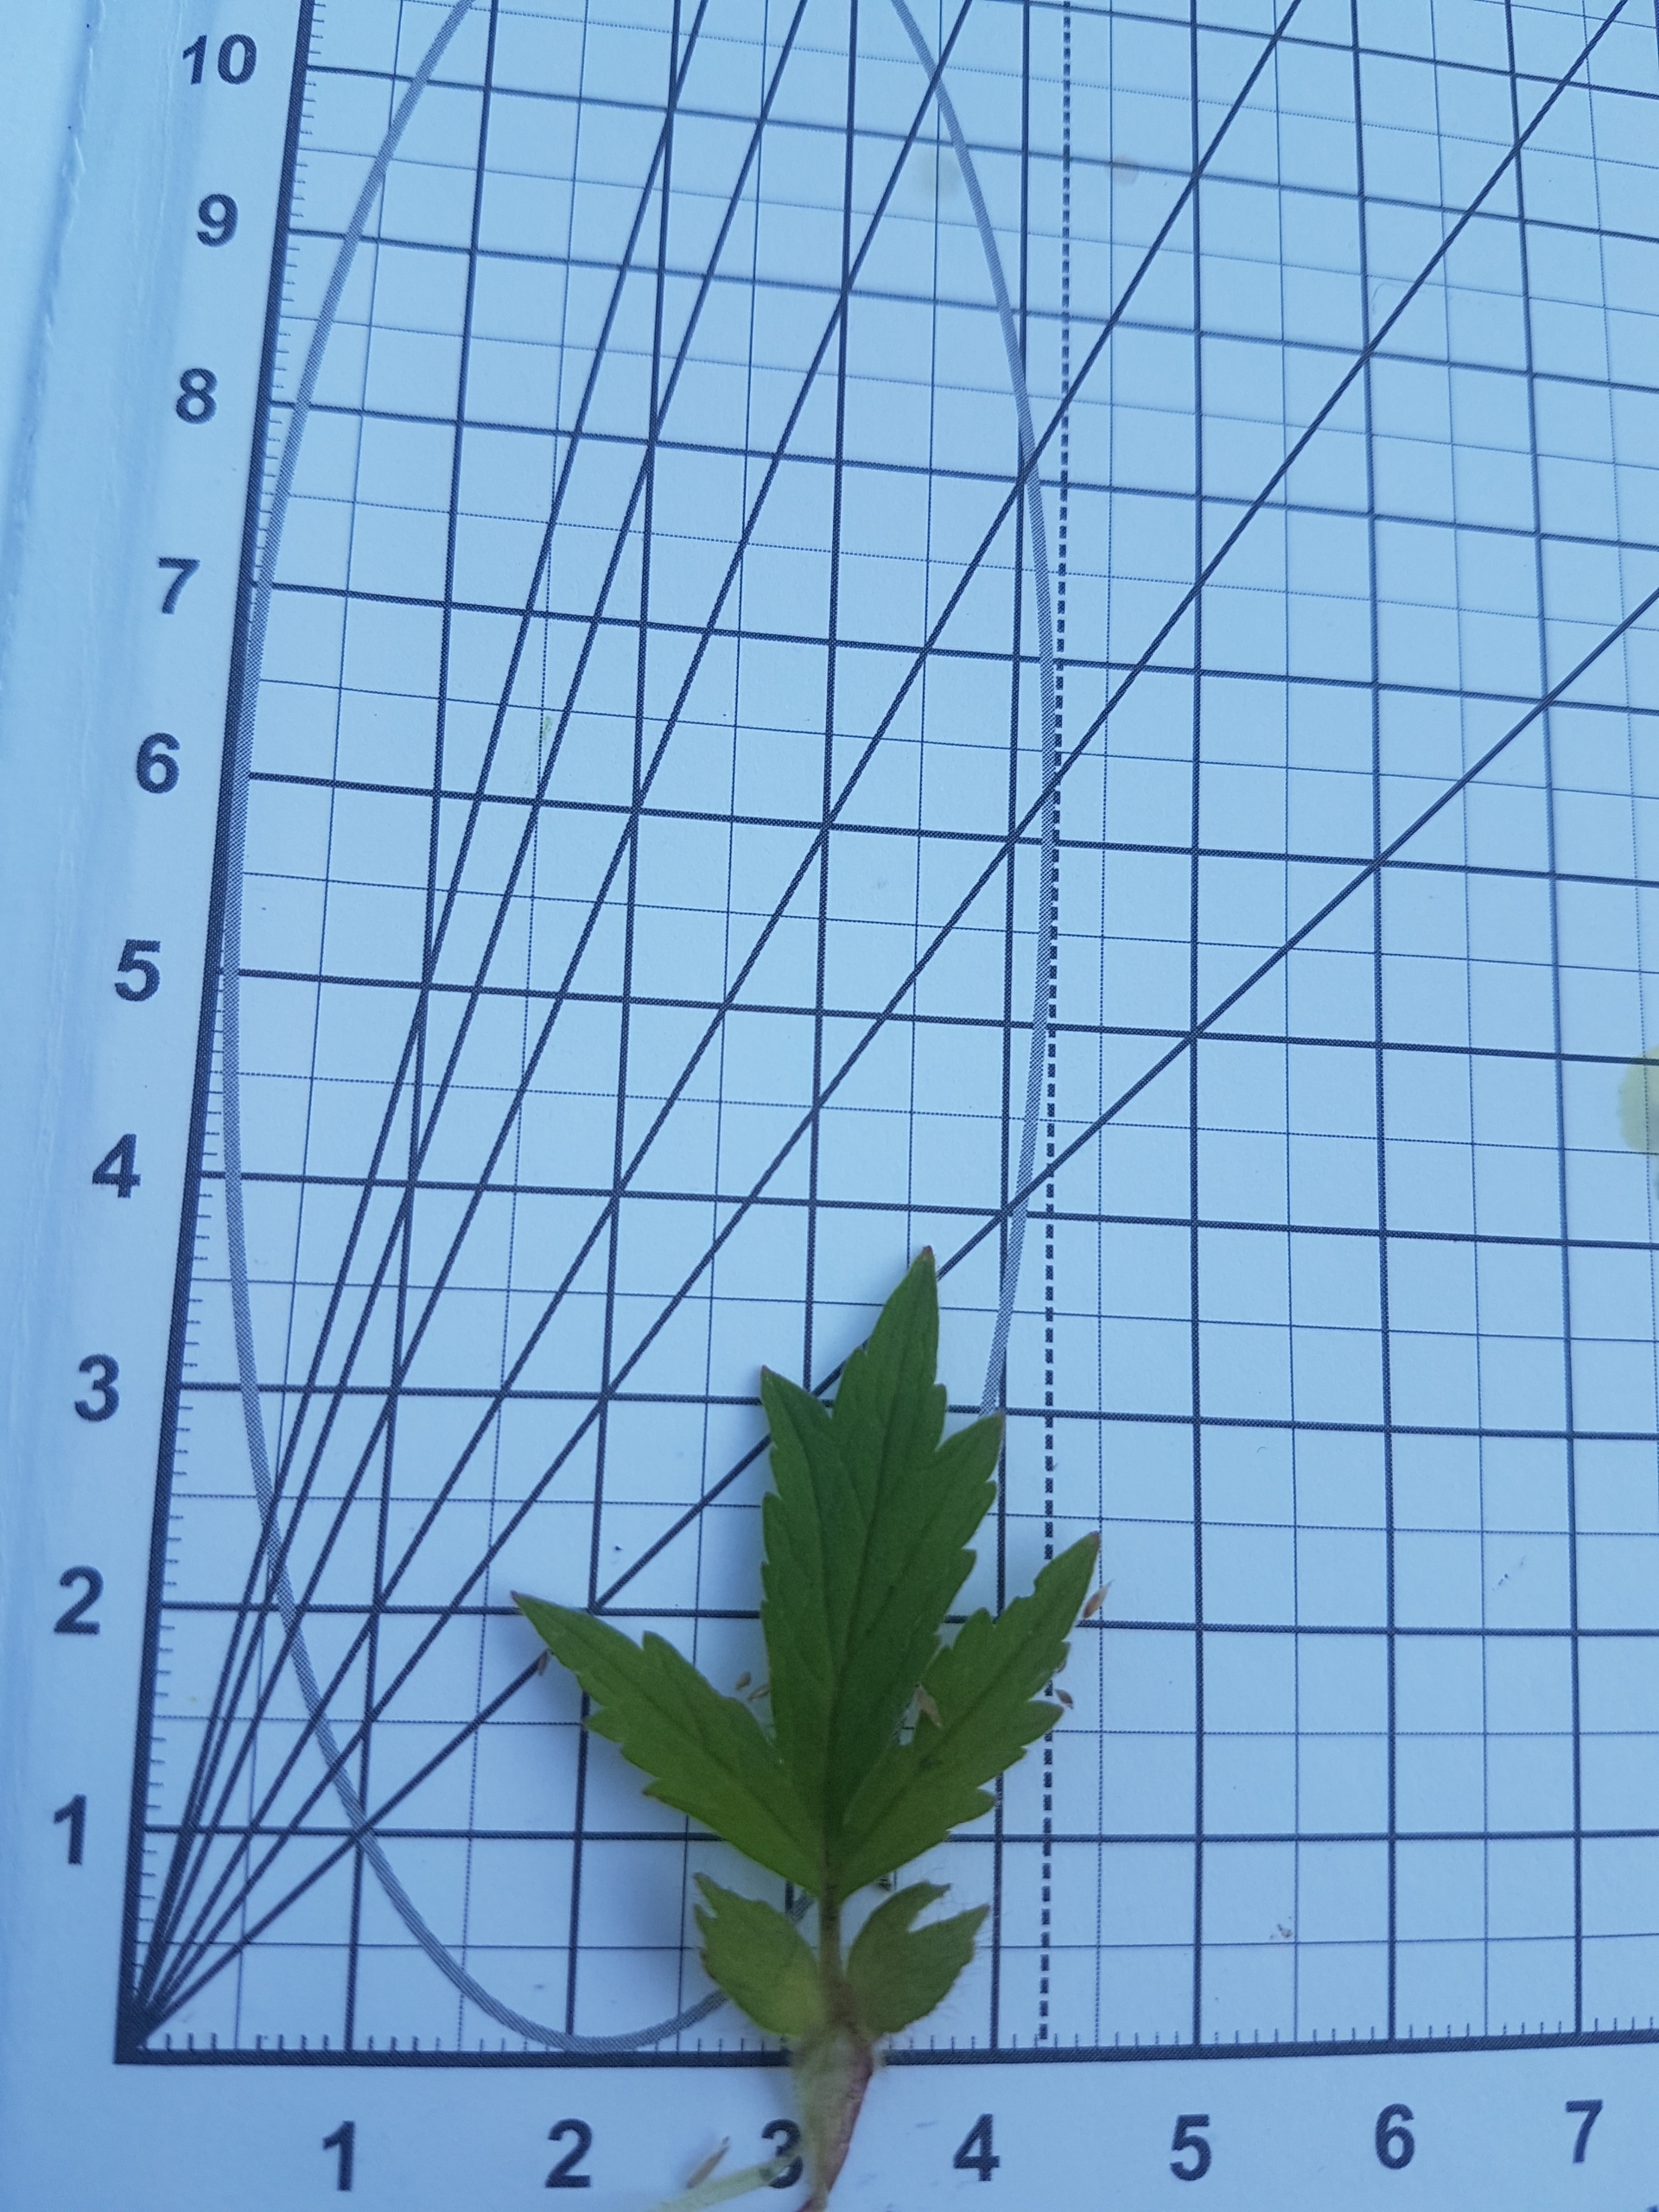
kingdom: Plantae
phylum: Tracheophyta
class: Magnoliopsida
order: Rosales
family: Rosaceae
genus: Geum
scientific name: Geum rivale
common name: Eng-nellikerod
